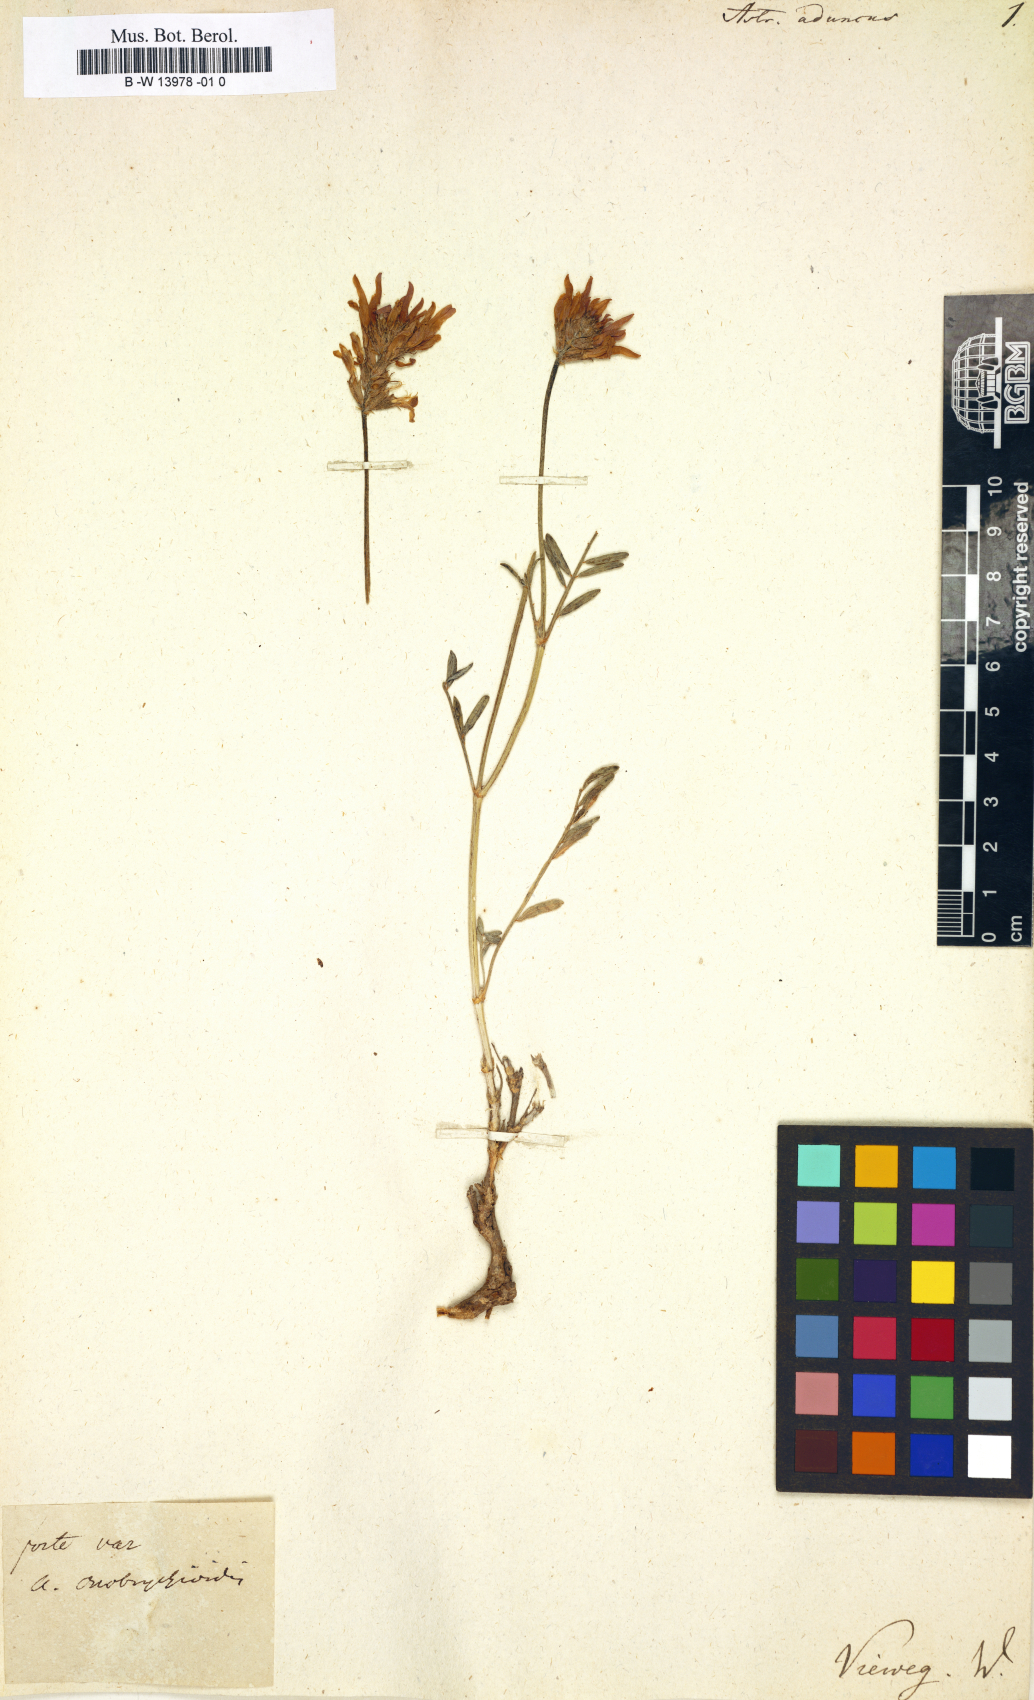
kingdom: Plantae
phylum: Tracheophyta
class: Magnoliopsida
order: Fabales
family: Fabaceae
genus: Astragalus
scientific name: Astragalus aduncus
